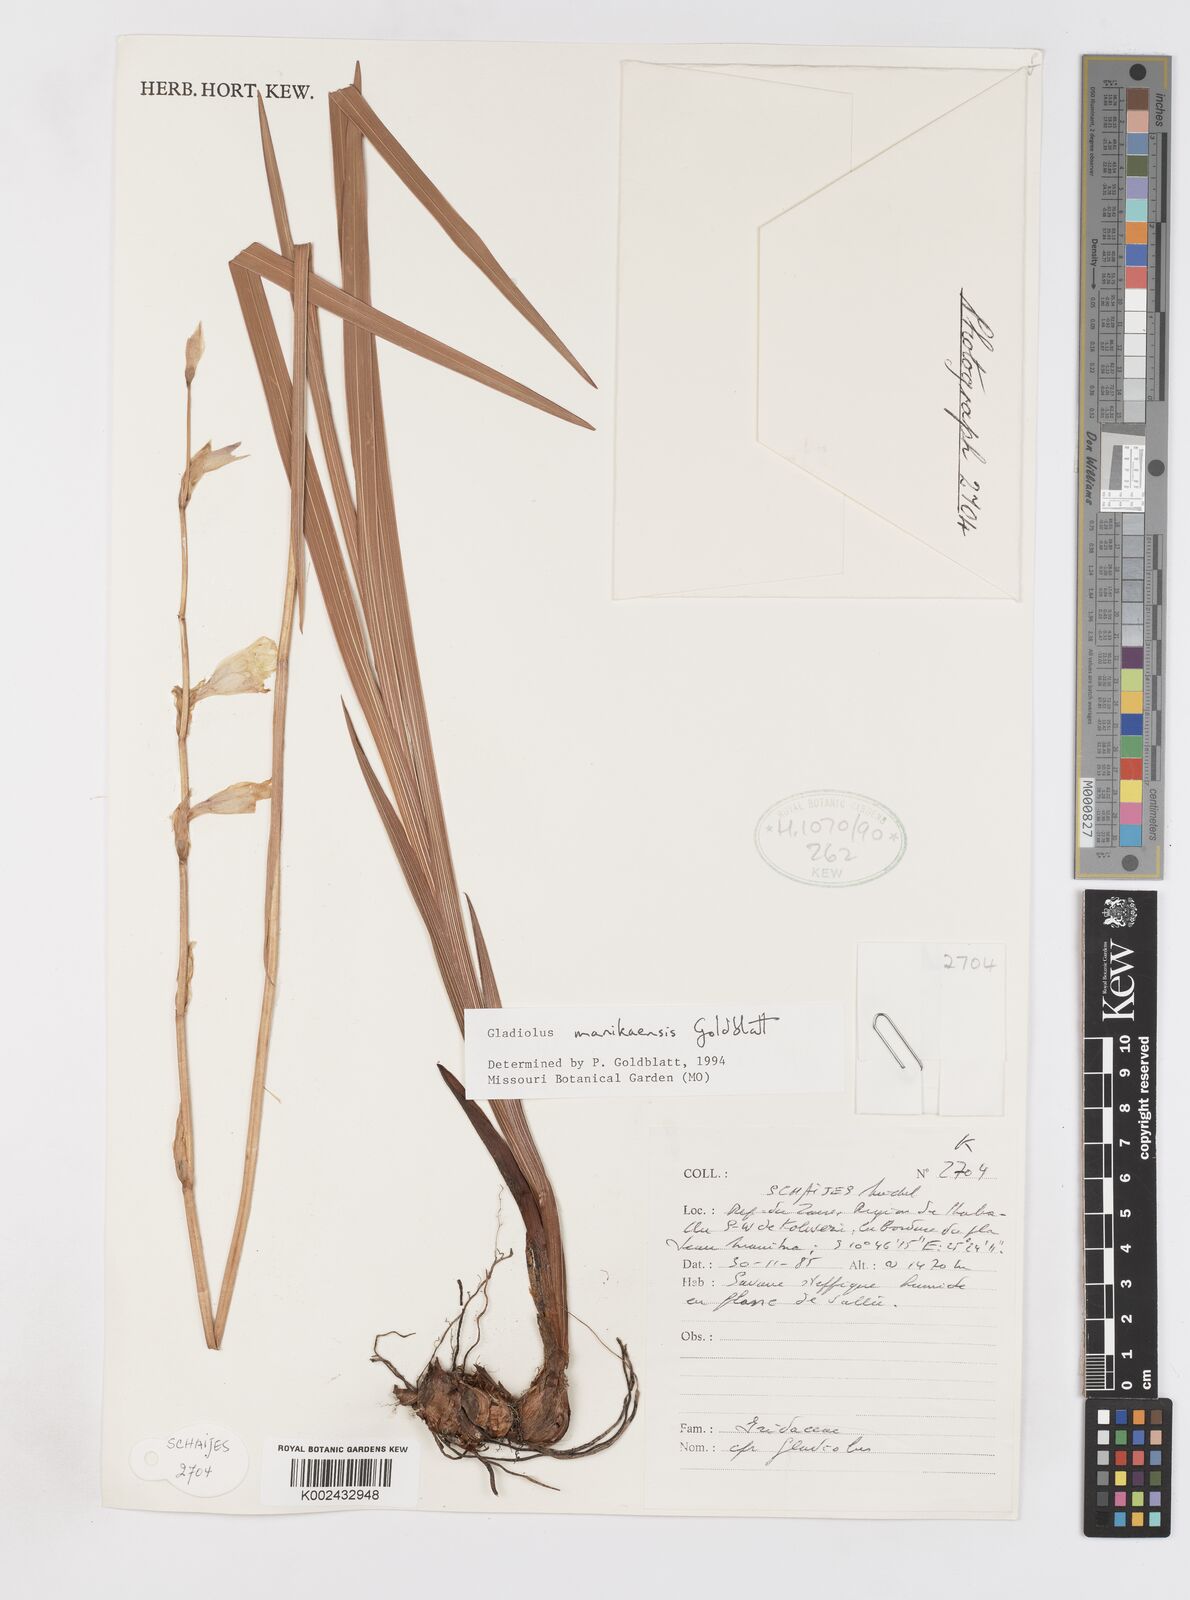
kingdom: Plantae
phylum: Tracheophyta
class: Liliopsida
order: Asparagales
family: Iridaceae
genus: Gladiolus
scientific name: Gladiolus manikaensis
